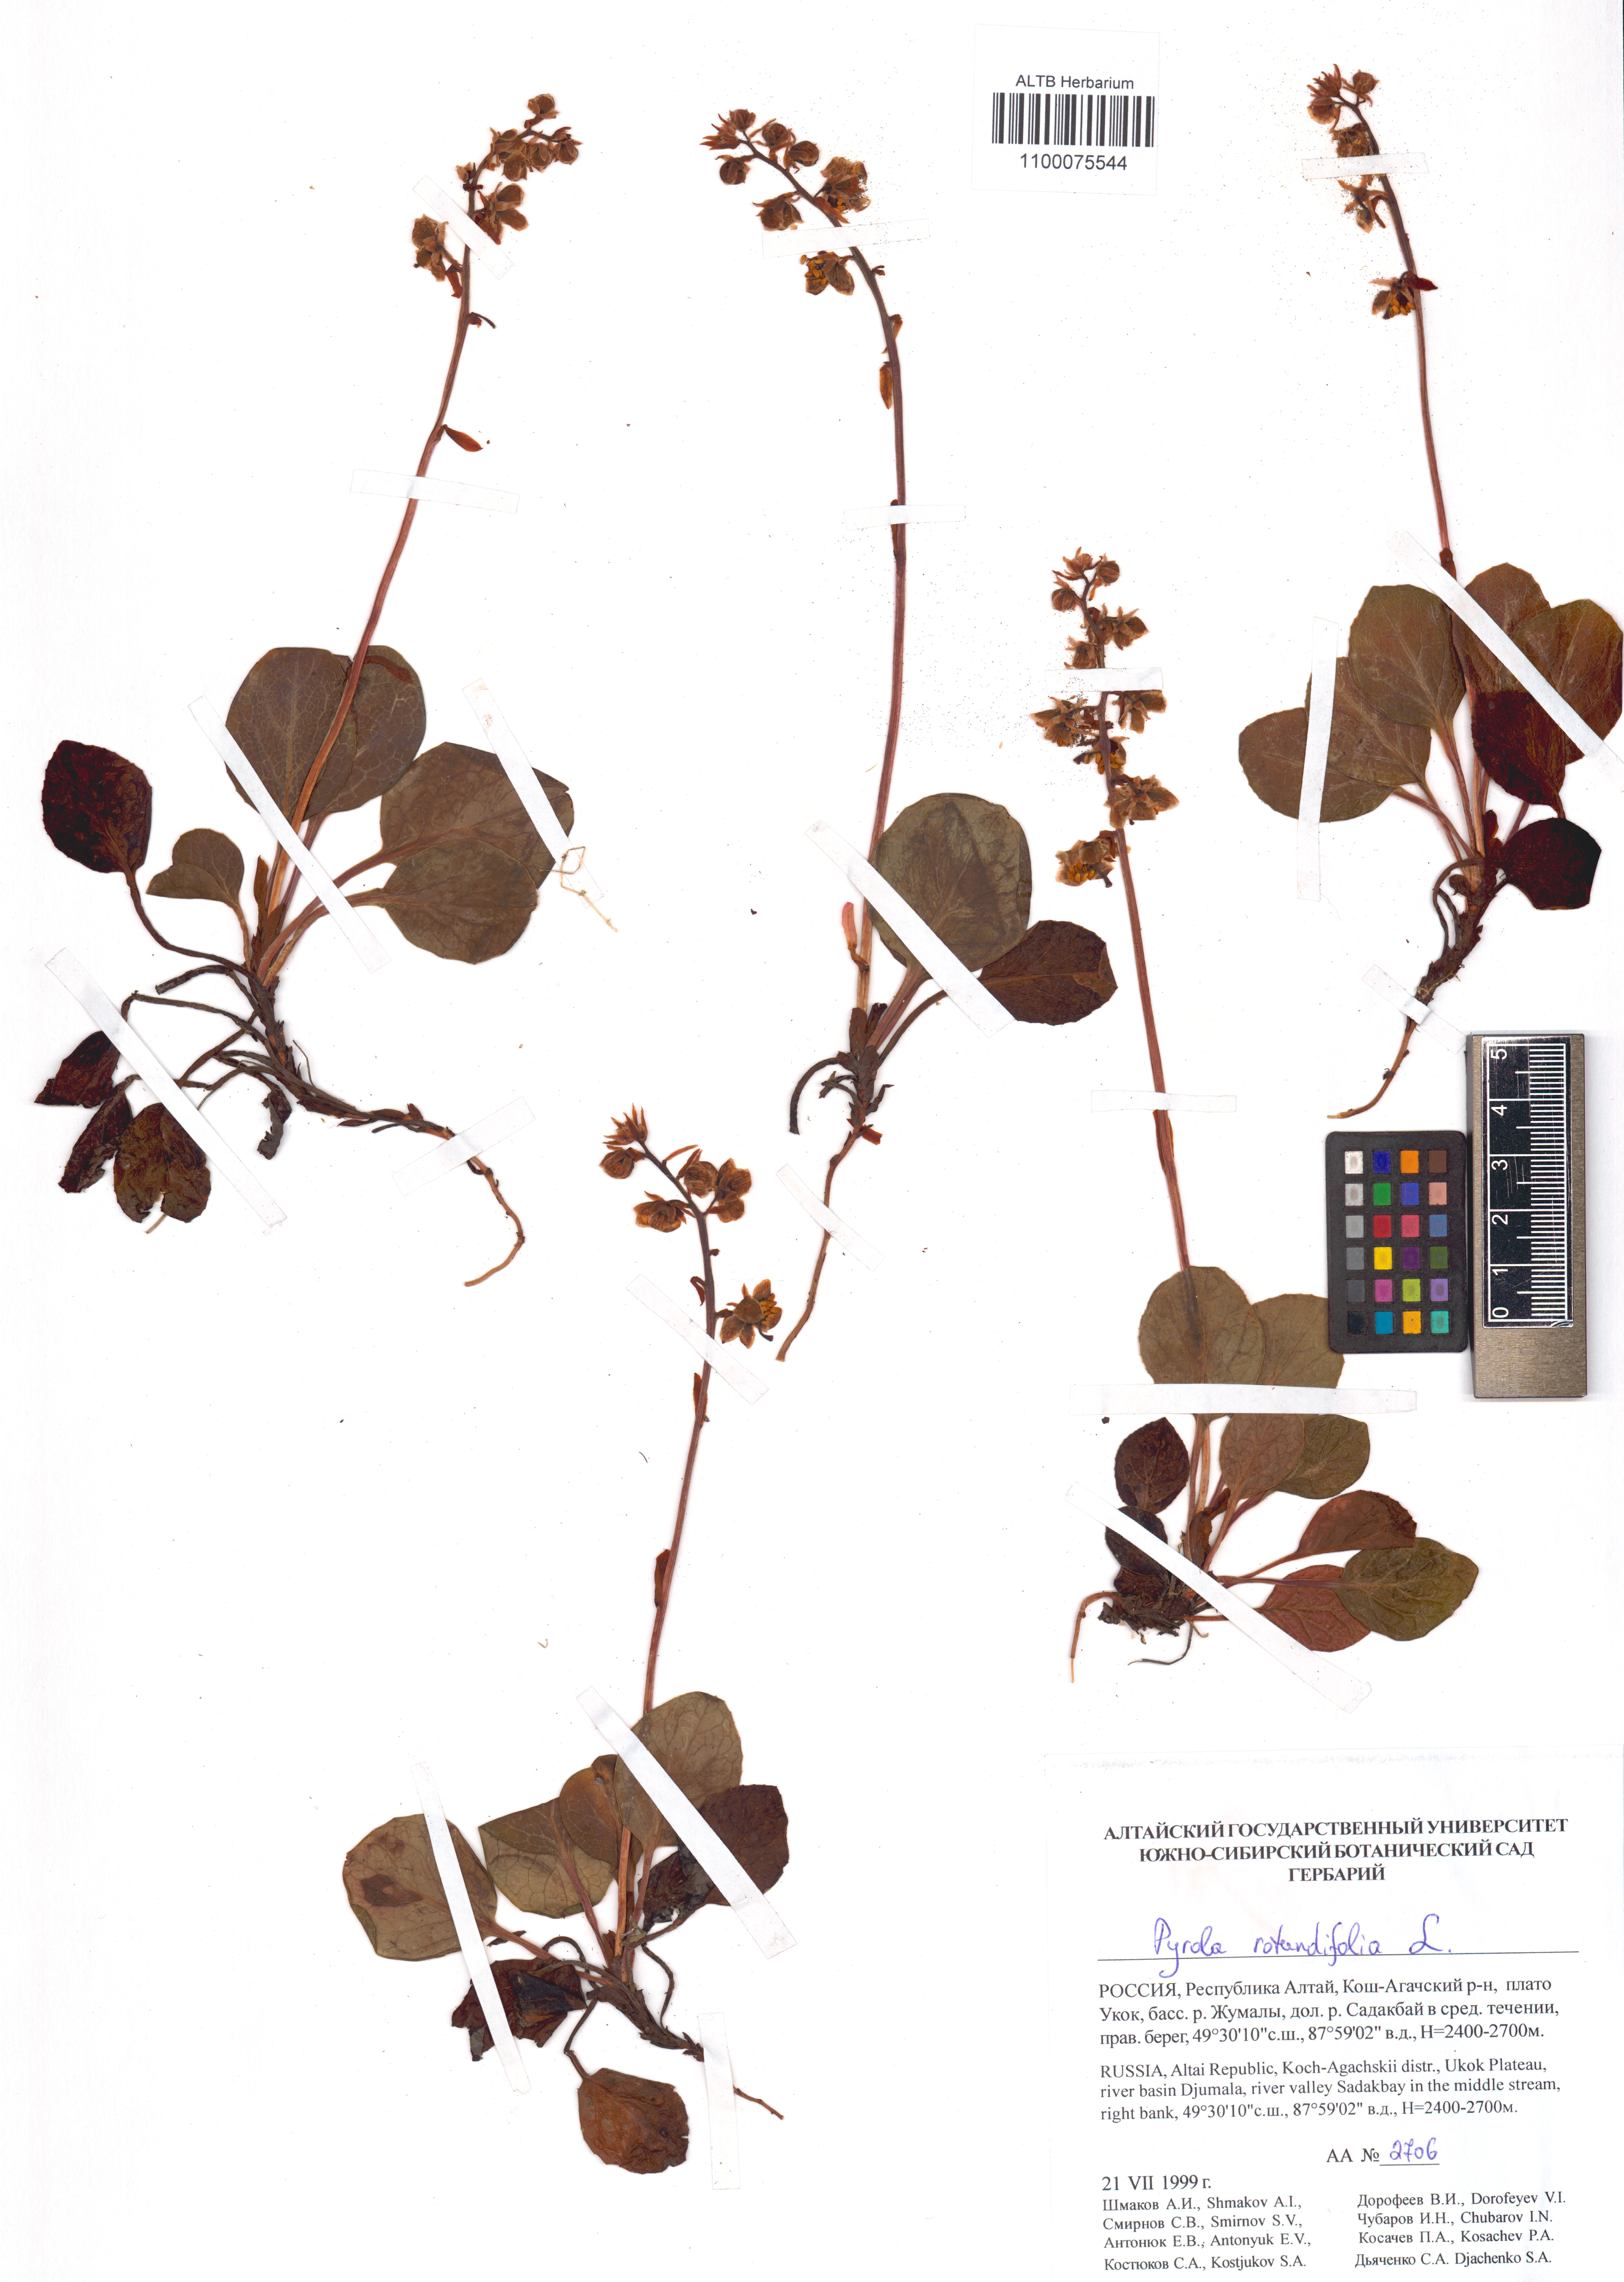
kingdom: Plantae
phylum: Tracheophyta
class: Magnoliopsida
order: Ericales
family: Ericaceae
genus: Pyrola
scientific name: Pyrola rotundifolia
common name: Round-leaved wintergreen
